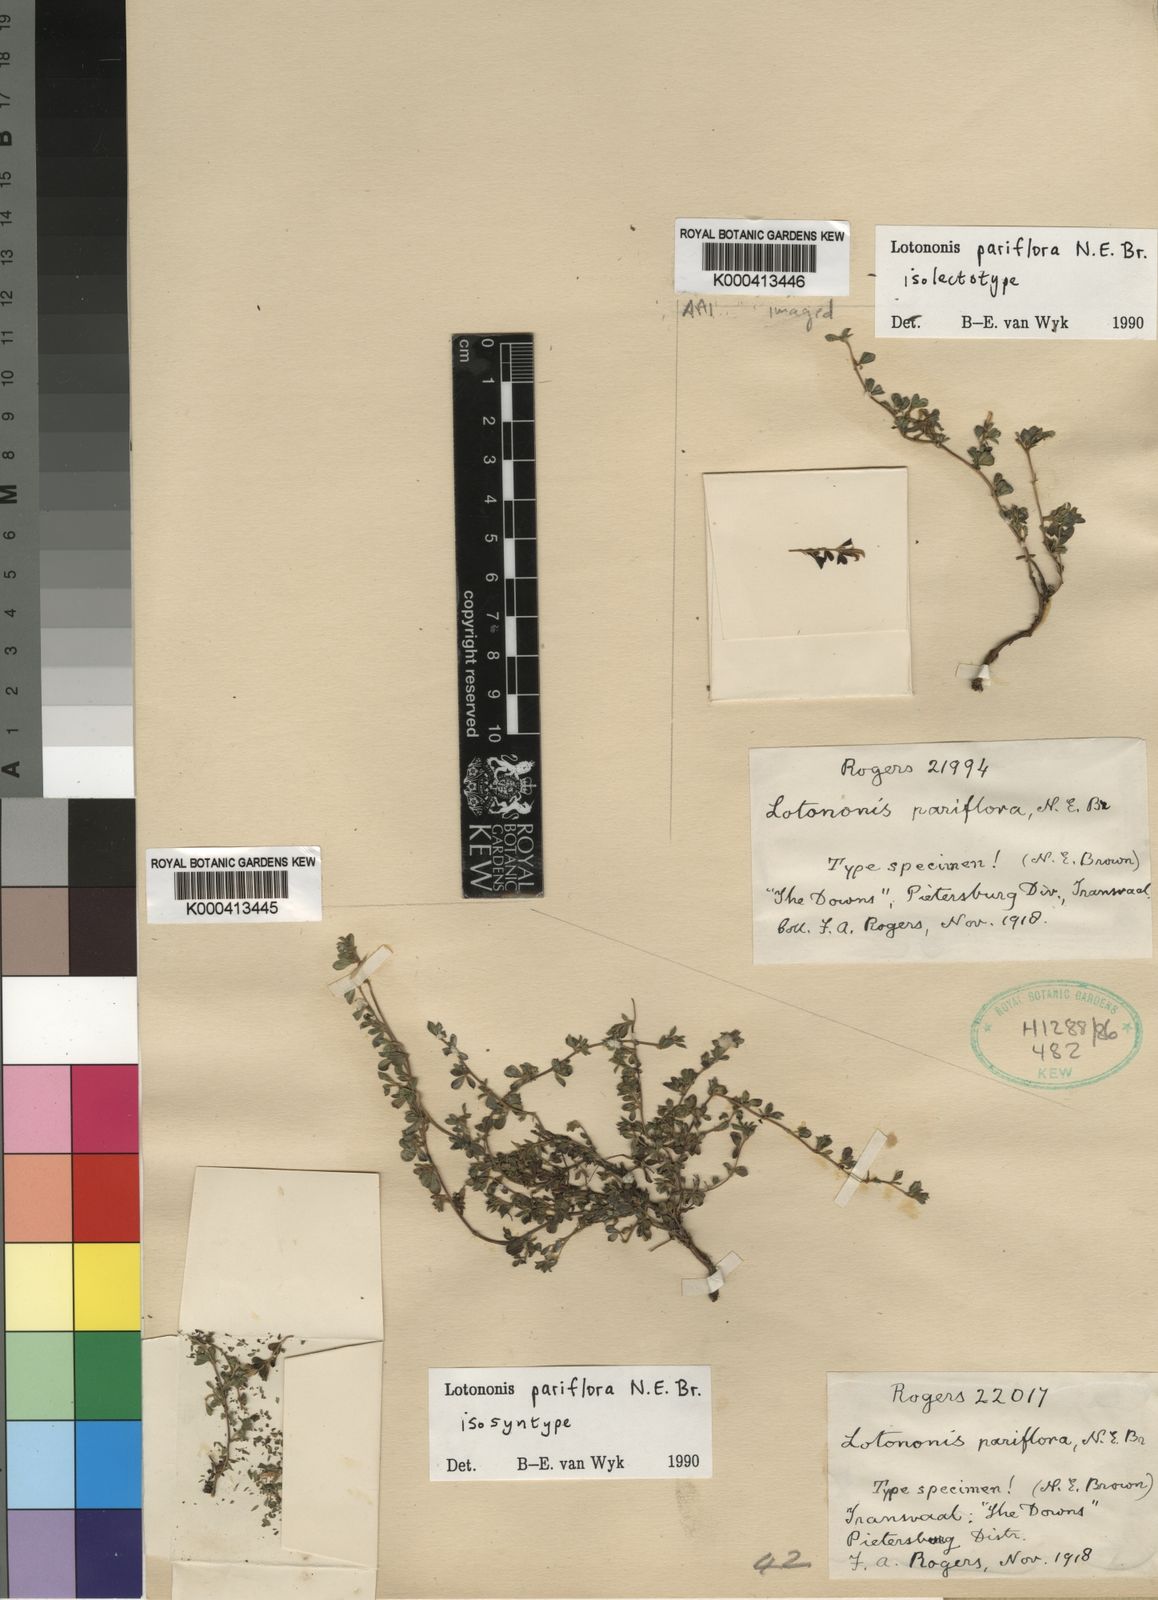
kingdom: Plantae
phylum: Tracheophyta
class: Magnoliopsida
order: Fabales
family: Fabaceae
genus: Leobordea
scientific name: Leobordea pariflora
